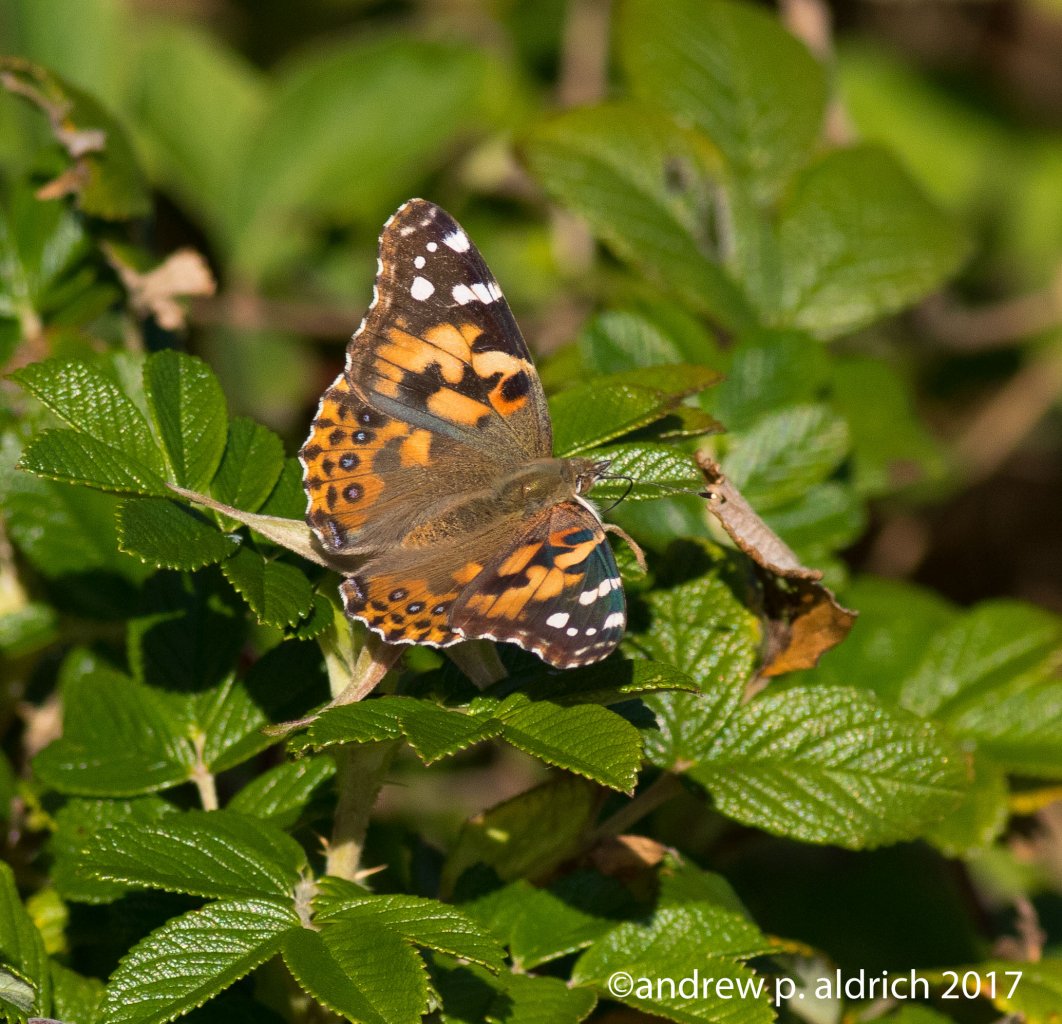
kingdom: Animalia
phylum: Arthropoda
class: Insecta
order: Lepidoptera
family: Nymphalidae
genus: Vanessa
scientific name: Vanessa cardui
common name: Painted Lady
